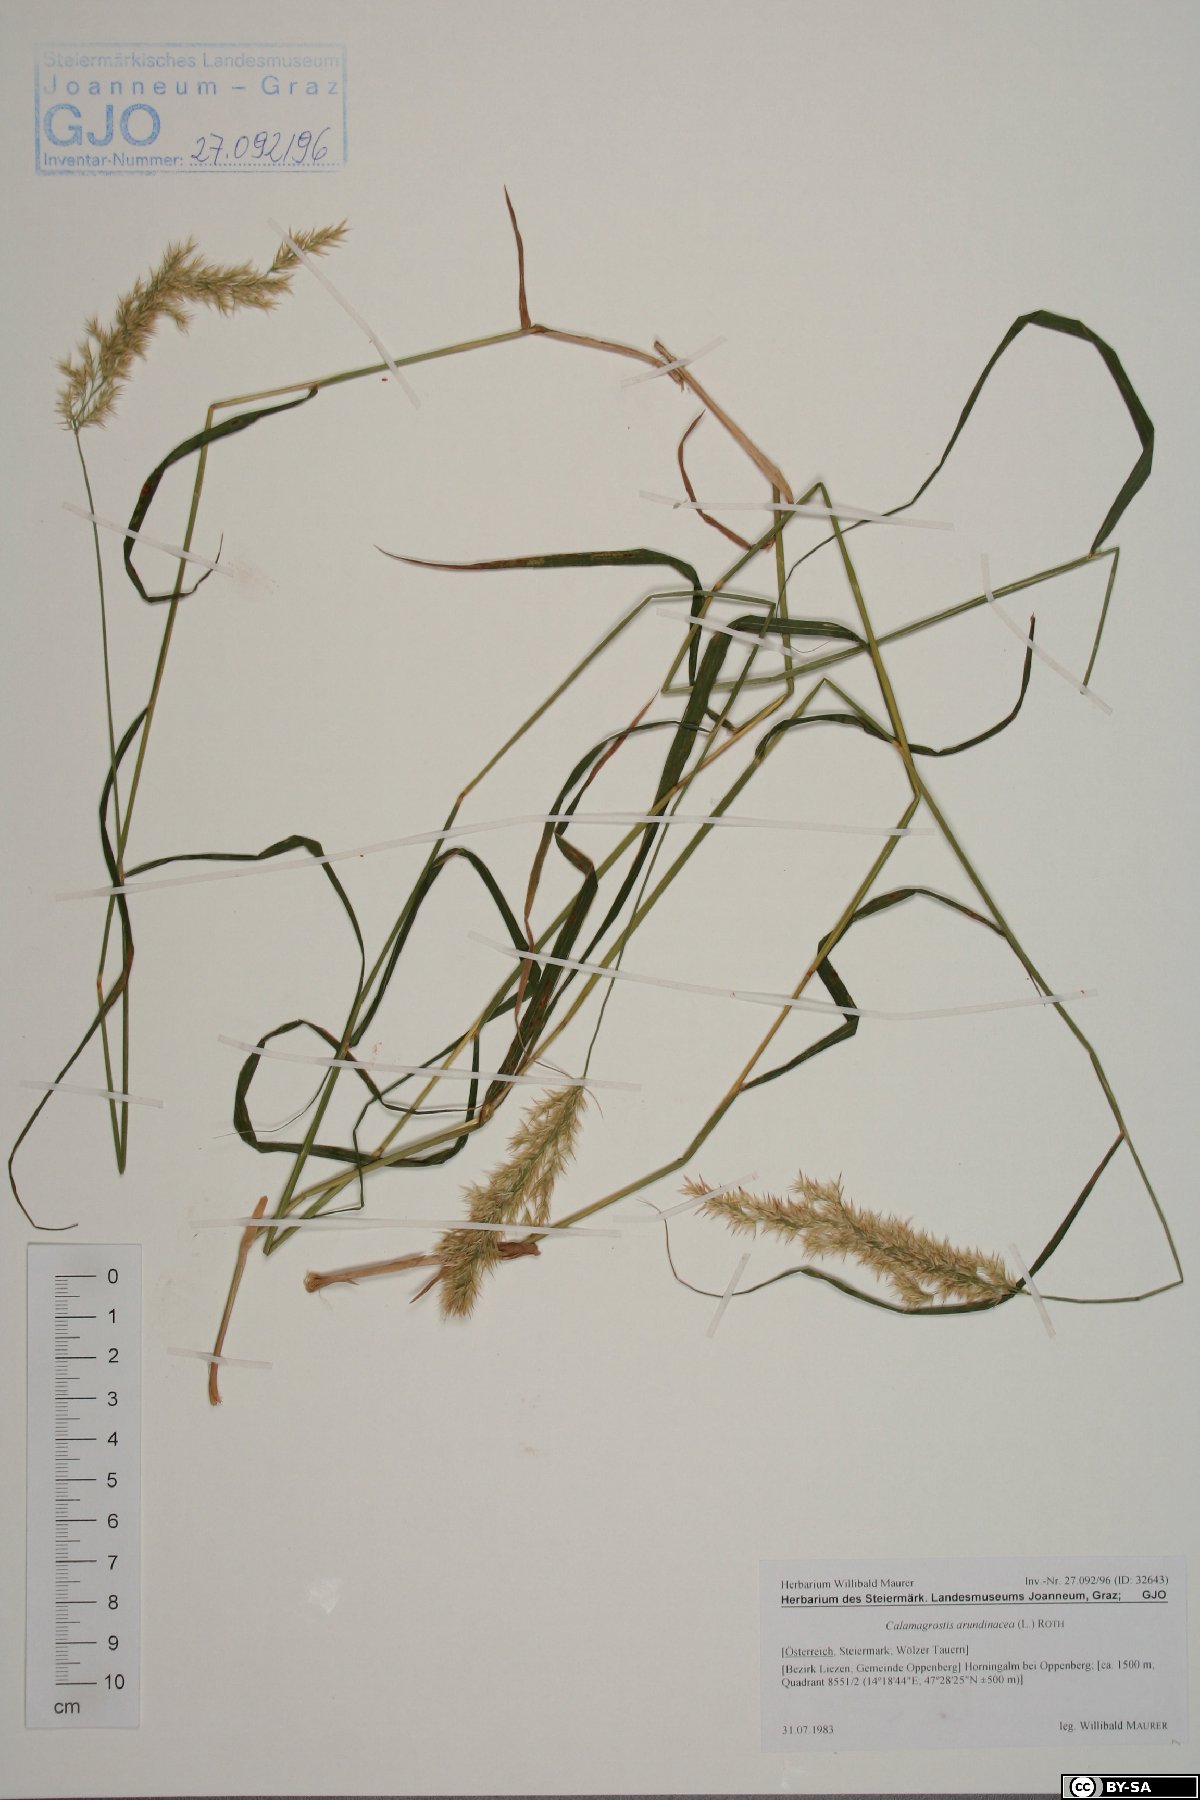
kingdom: Plantae
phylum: Tracheophyta
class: Liliopsida
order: Poales
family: Poaceae
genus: Calamagrostis
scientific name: Calamagrostis arundinacea
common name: Metskastik
